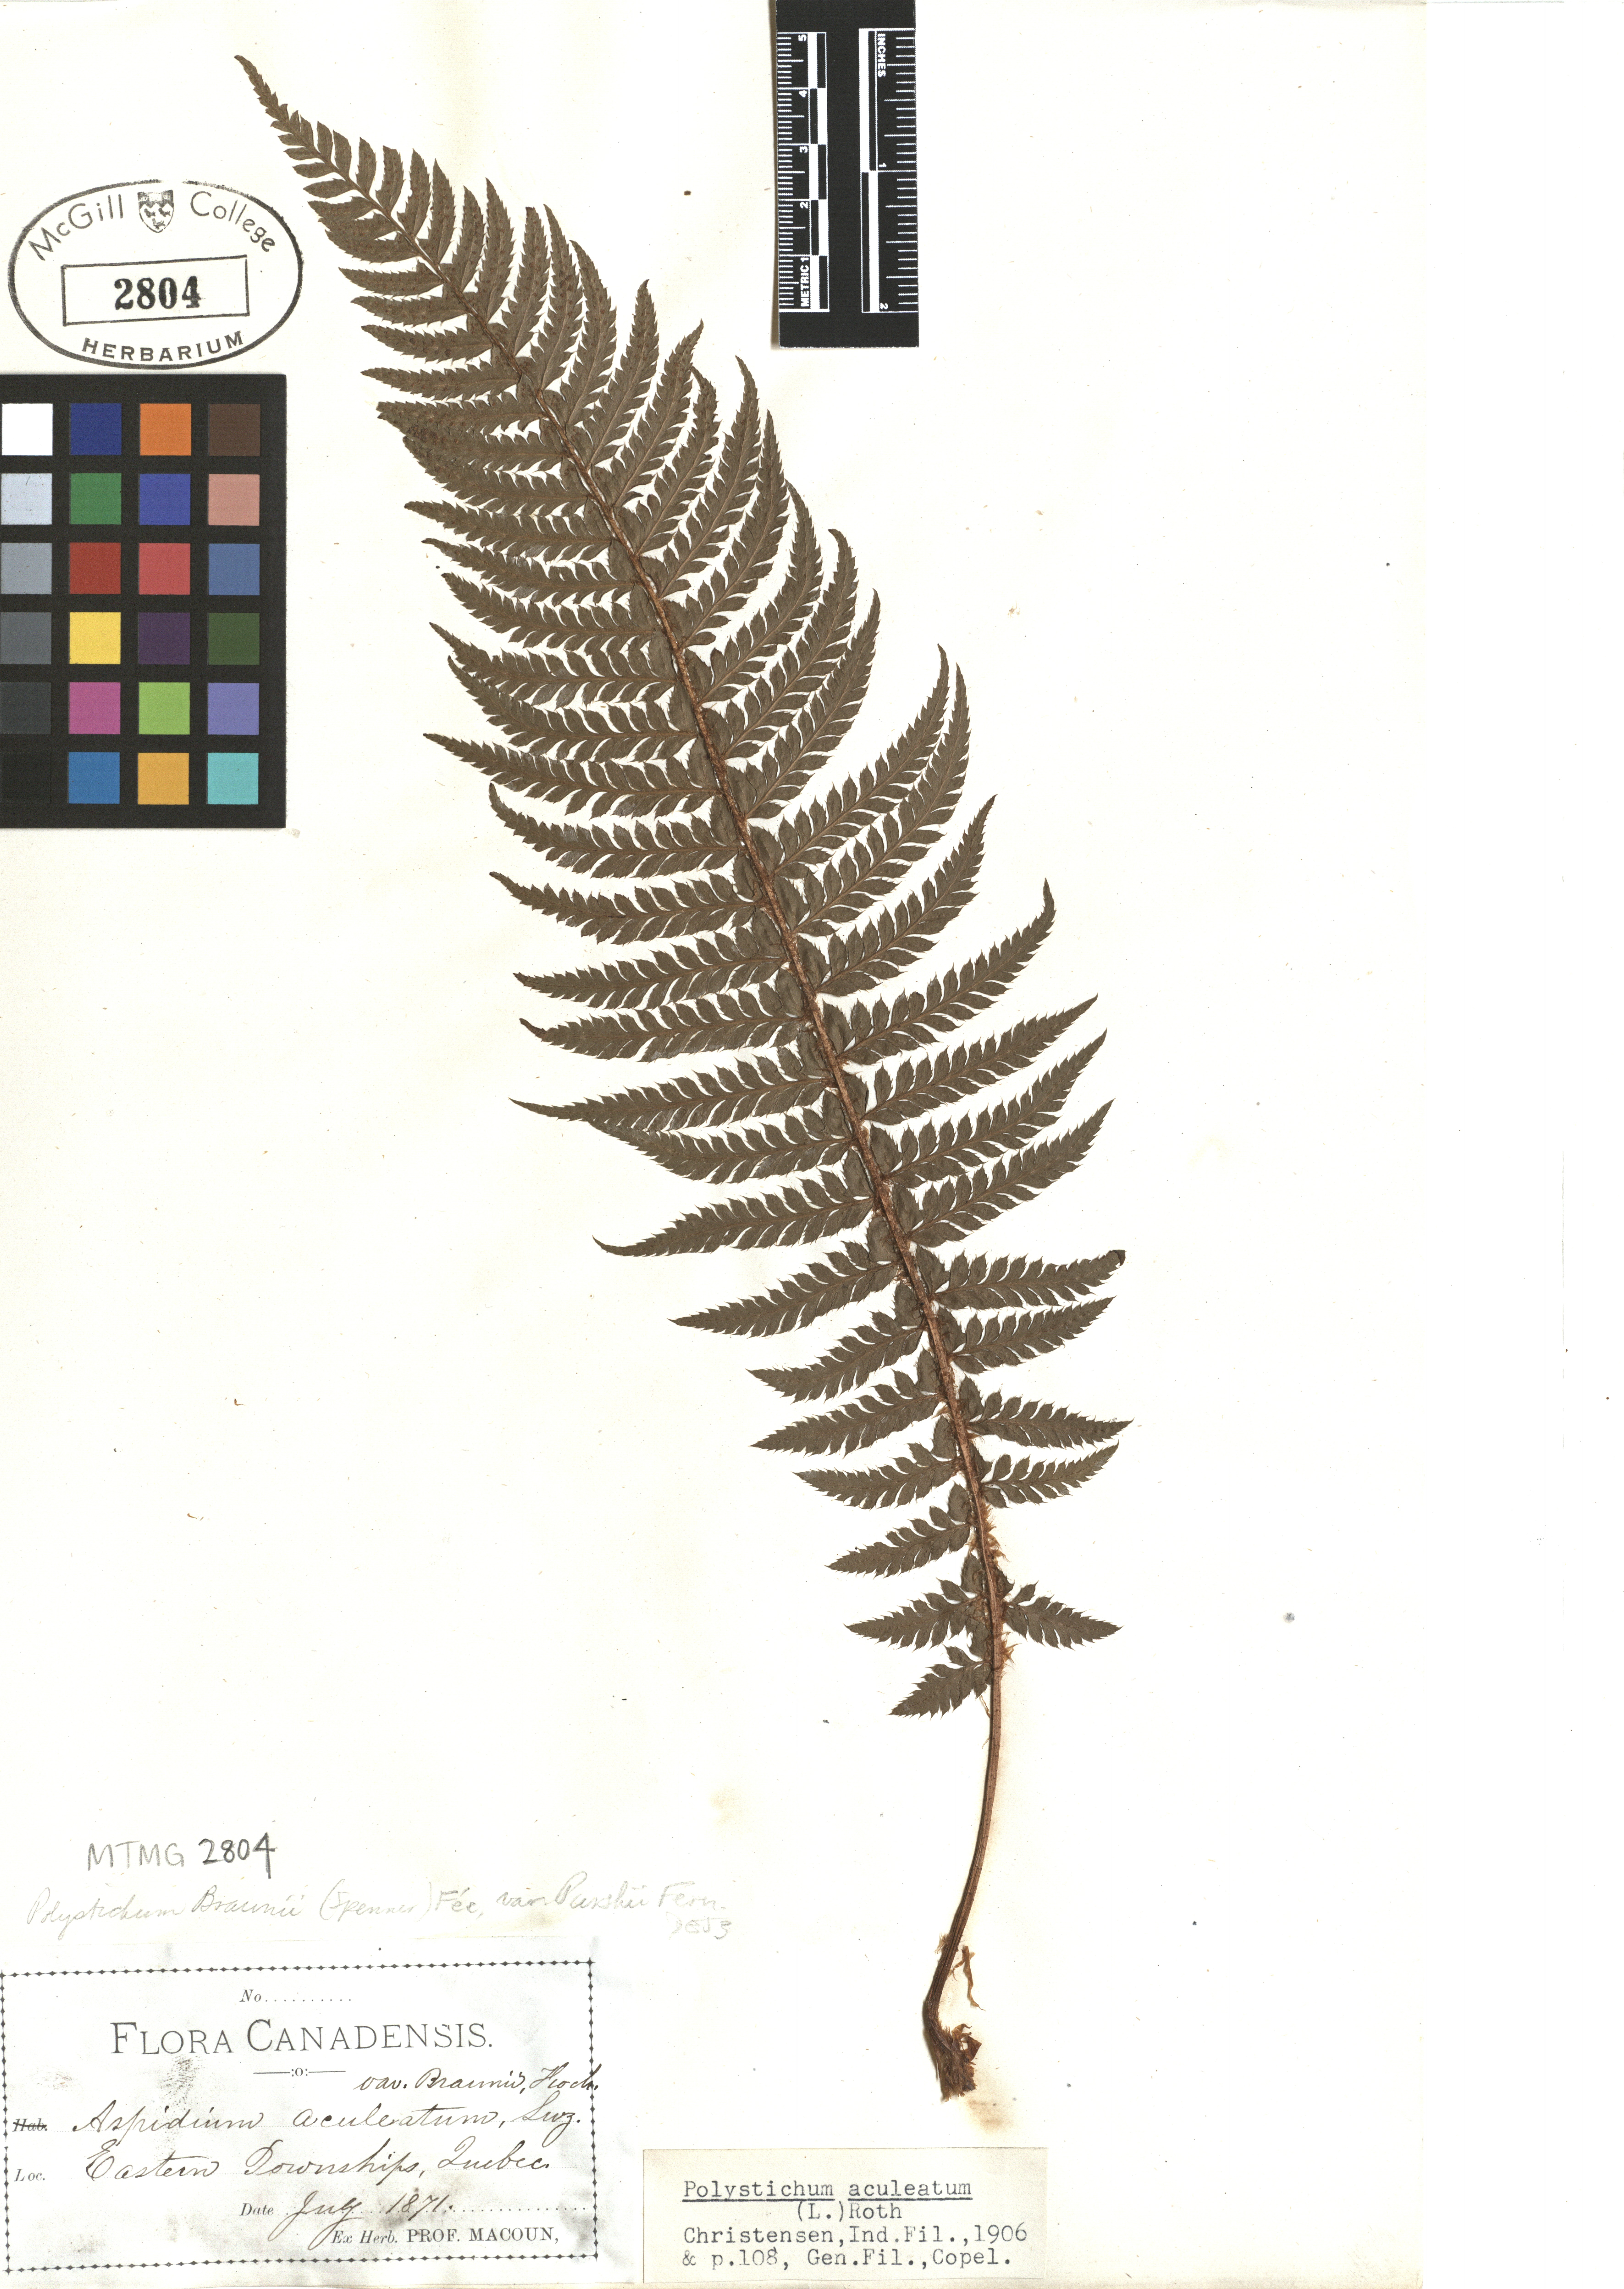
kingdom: Plantae
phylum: Tracheophyta
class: Polypodiopsida
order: Polypodiales
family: Dryopteridaceae
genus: Polystichum
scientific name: Polystichum aculeatum
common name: Hard shield-fern
